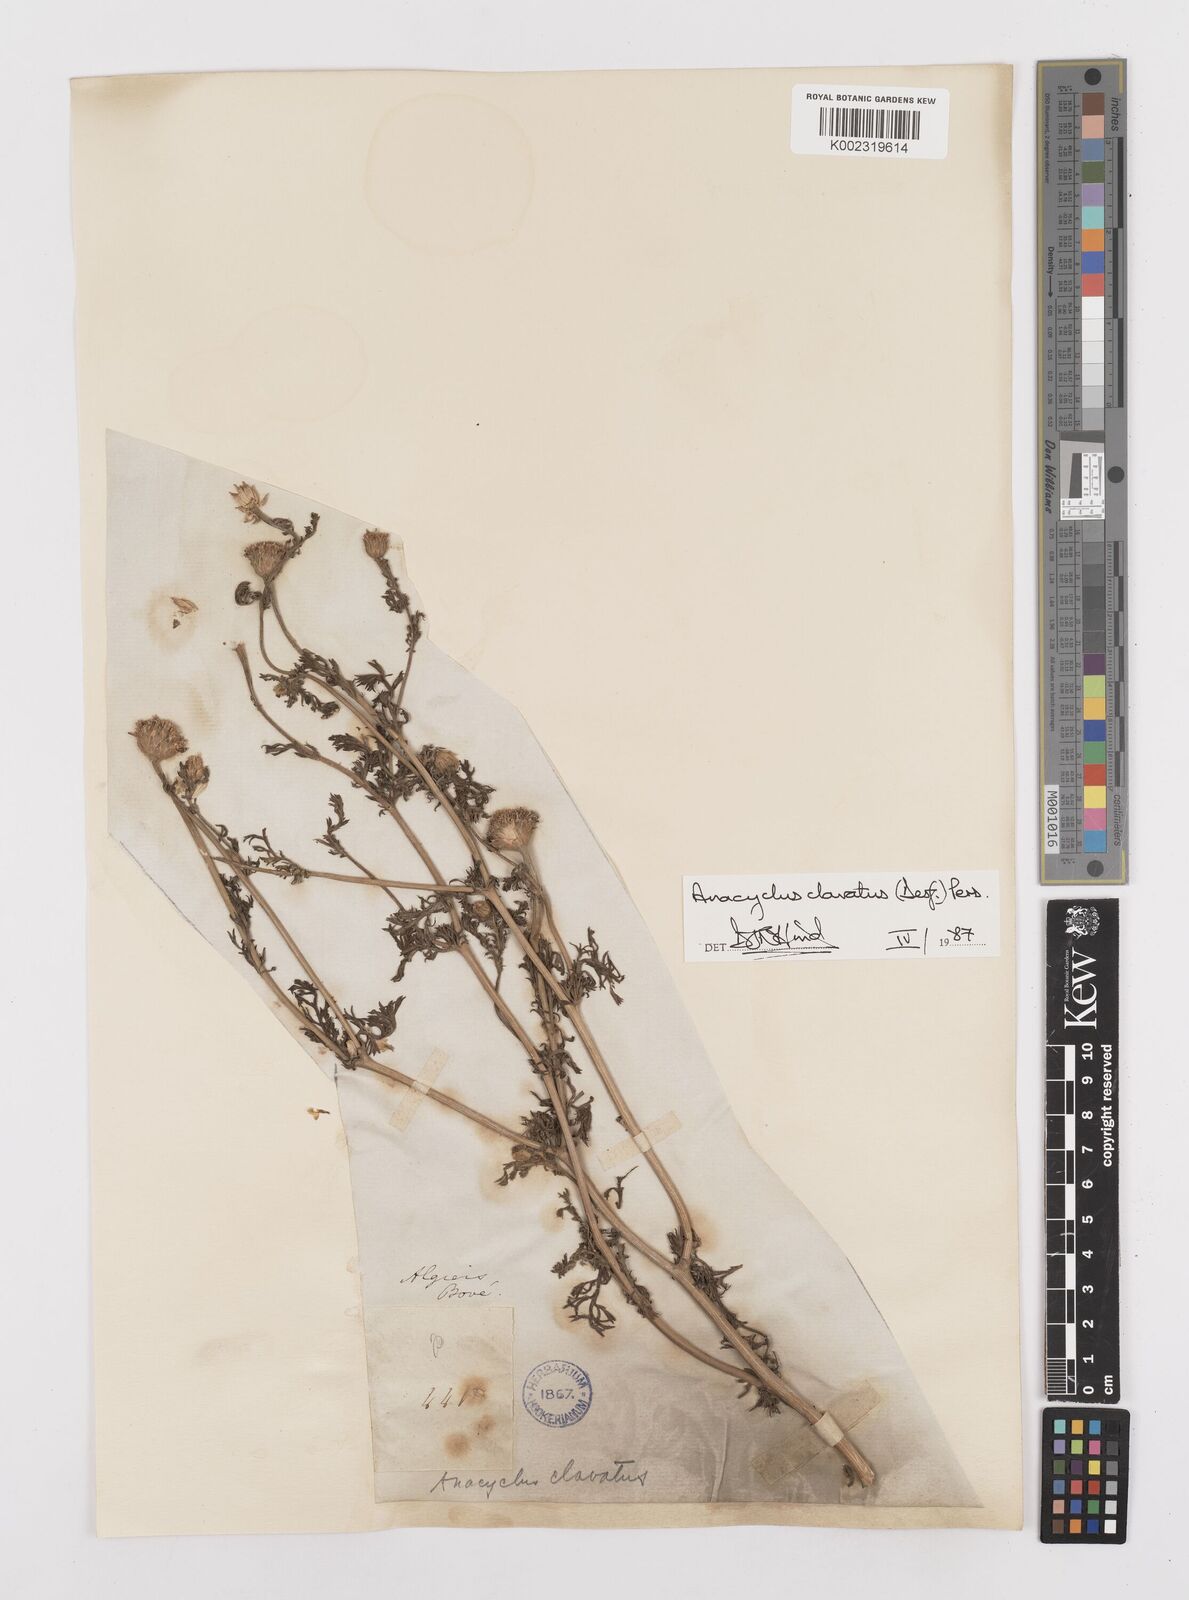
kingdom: Plantae
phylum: Tracheophyta
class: Magnoliopsida
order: Asterales
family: Asteraceae
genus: Anacyclus
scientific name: Anacyclus clavatus
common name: Whitebuttons
